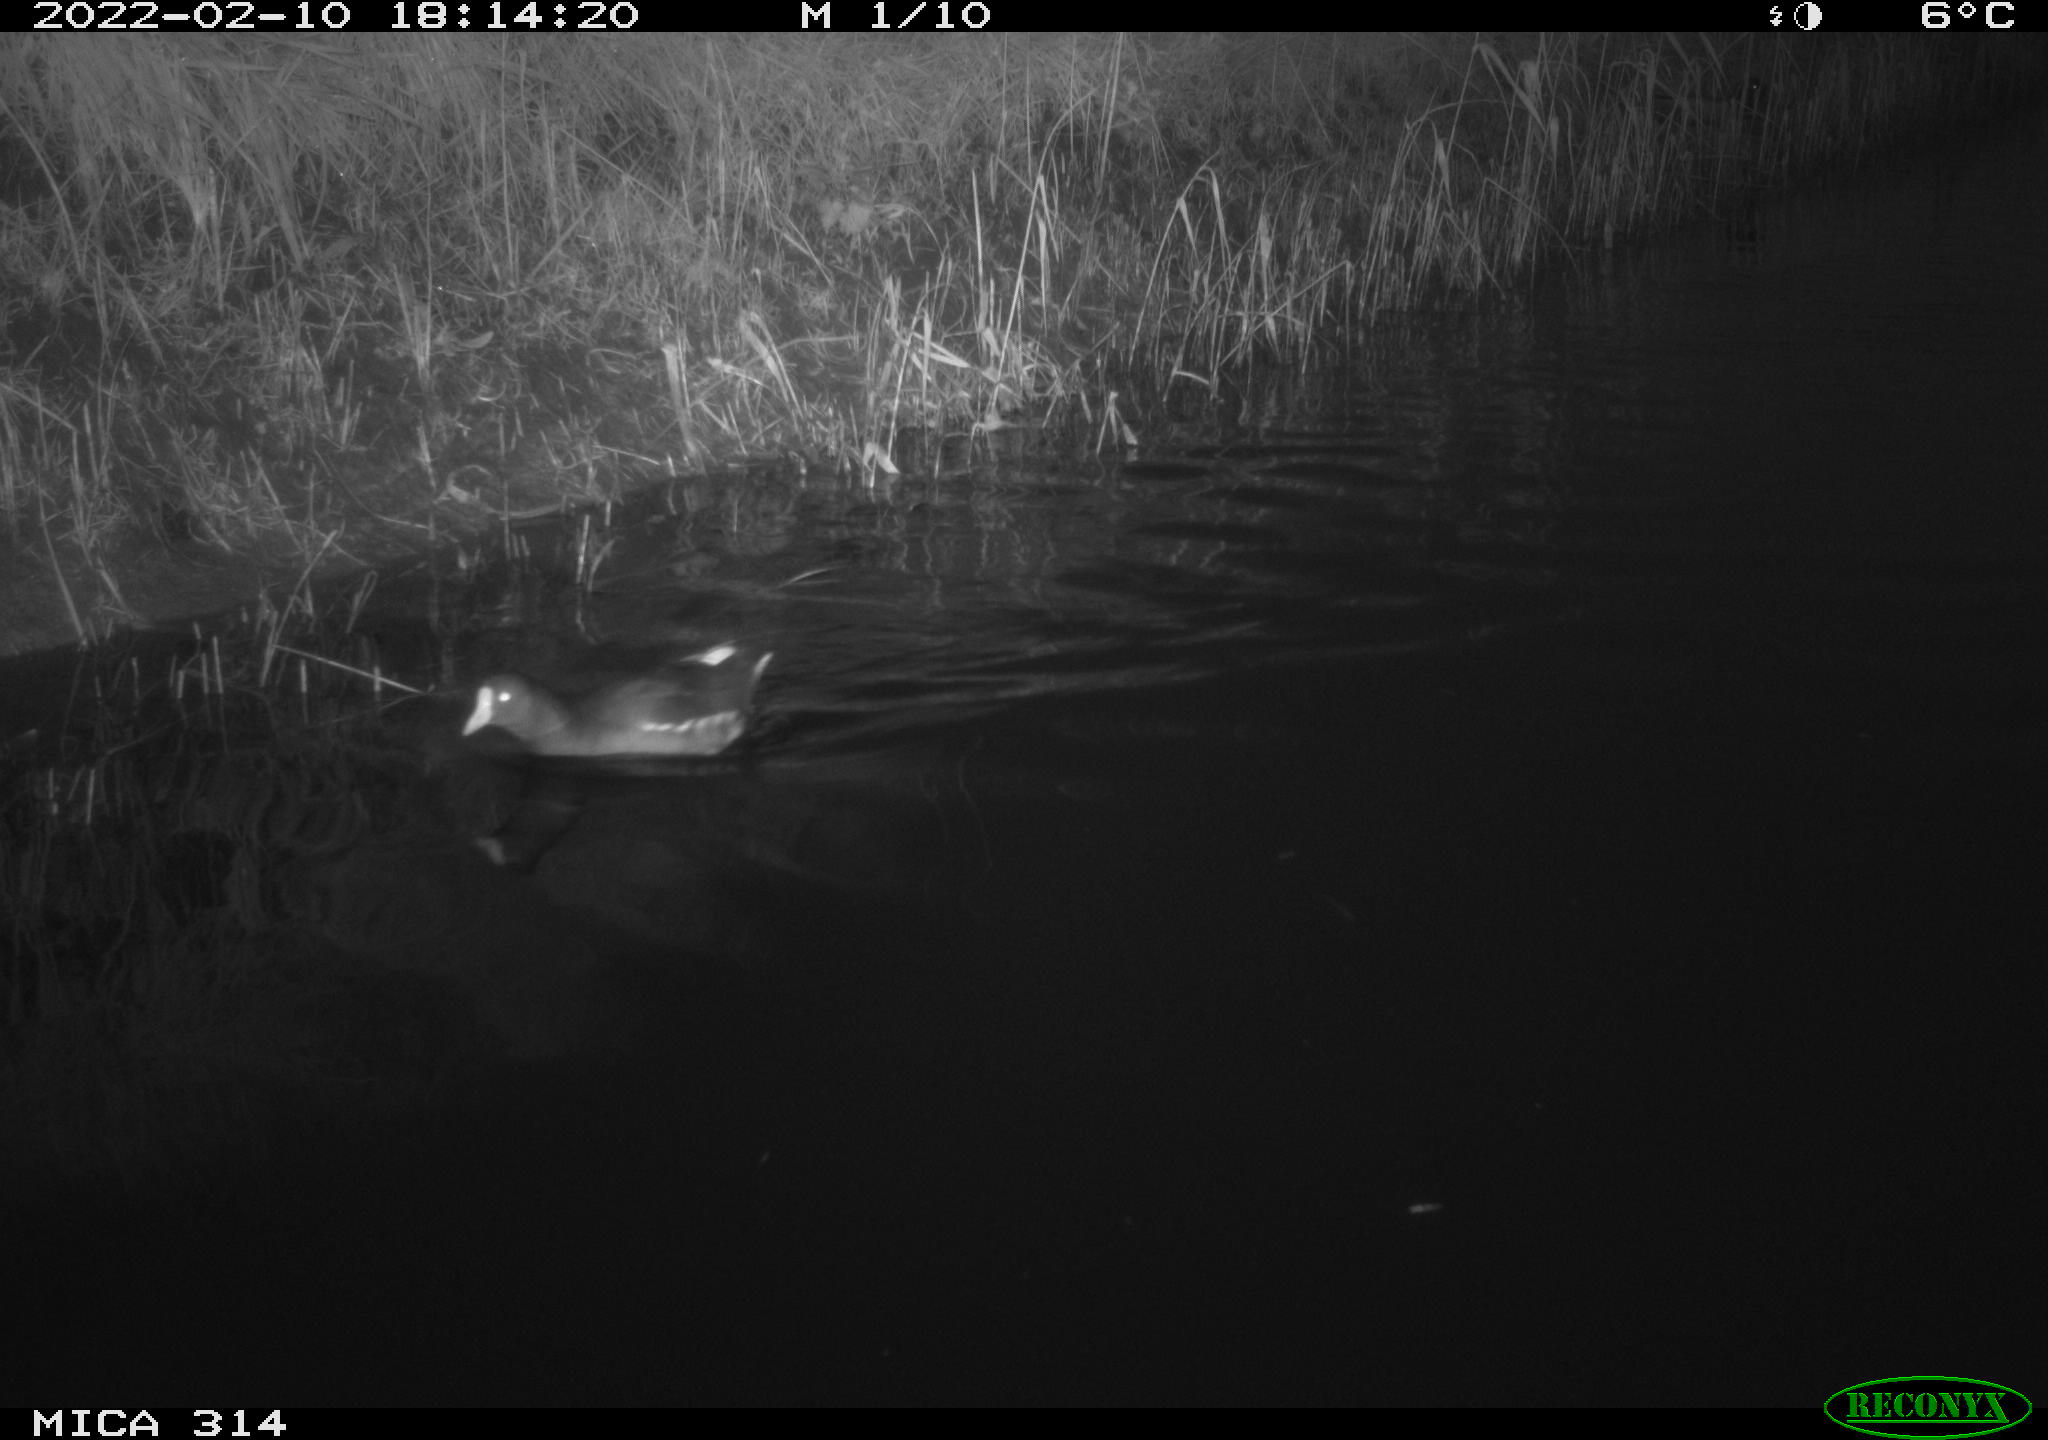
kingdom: Animalia
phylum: Chordata
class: Aves
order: Gruiformes
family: Rallidae
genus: Gallinula
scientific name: Gallinula chloropus
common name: Common moorhen
